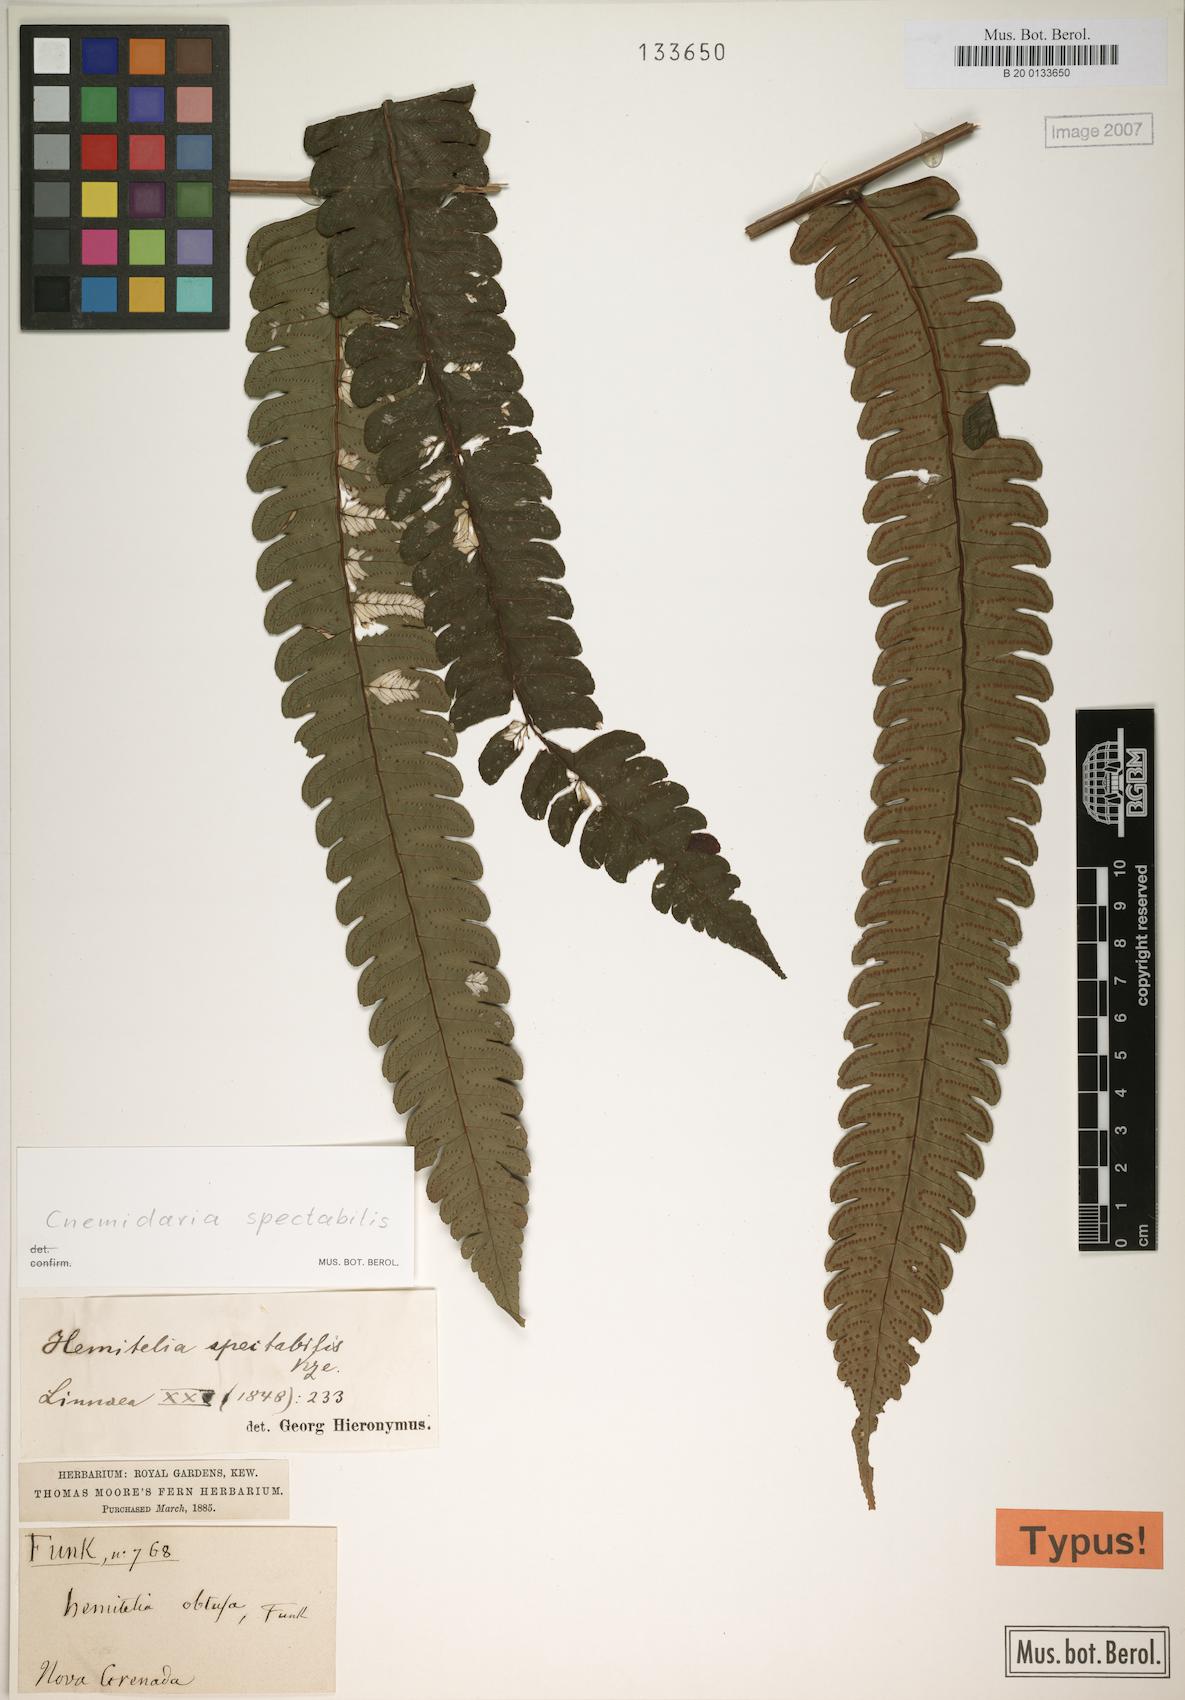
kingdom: Plantae
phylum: Tracheophyta
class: Polypodiopsida
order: Cyatheales
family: Cyatheaceae
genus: Cyathea
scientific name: Cyathea spectabilis
